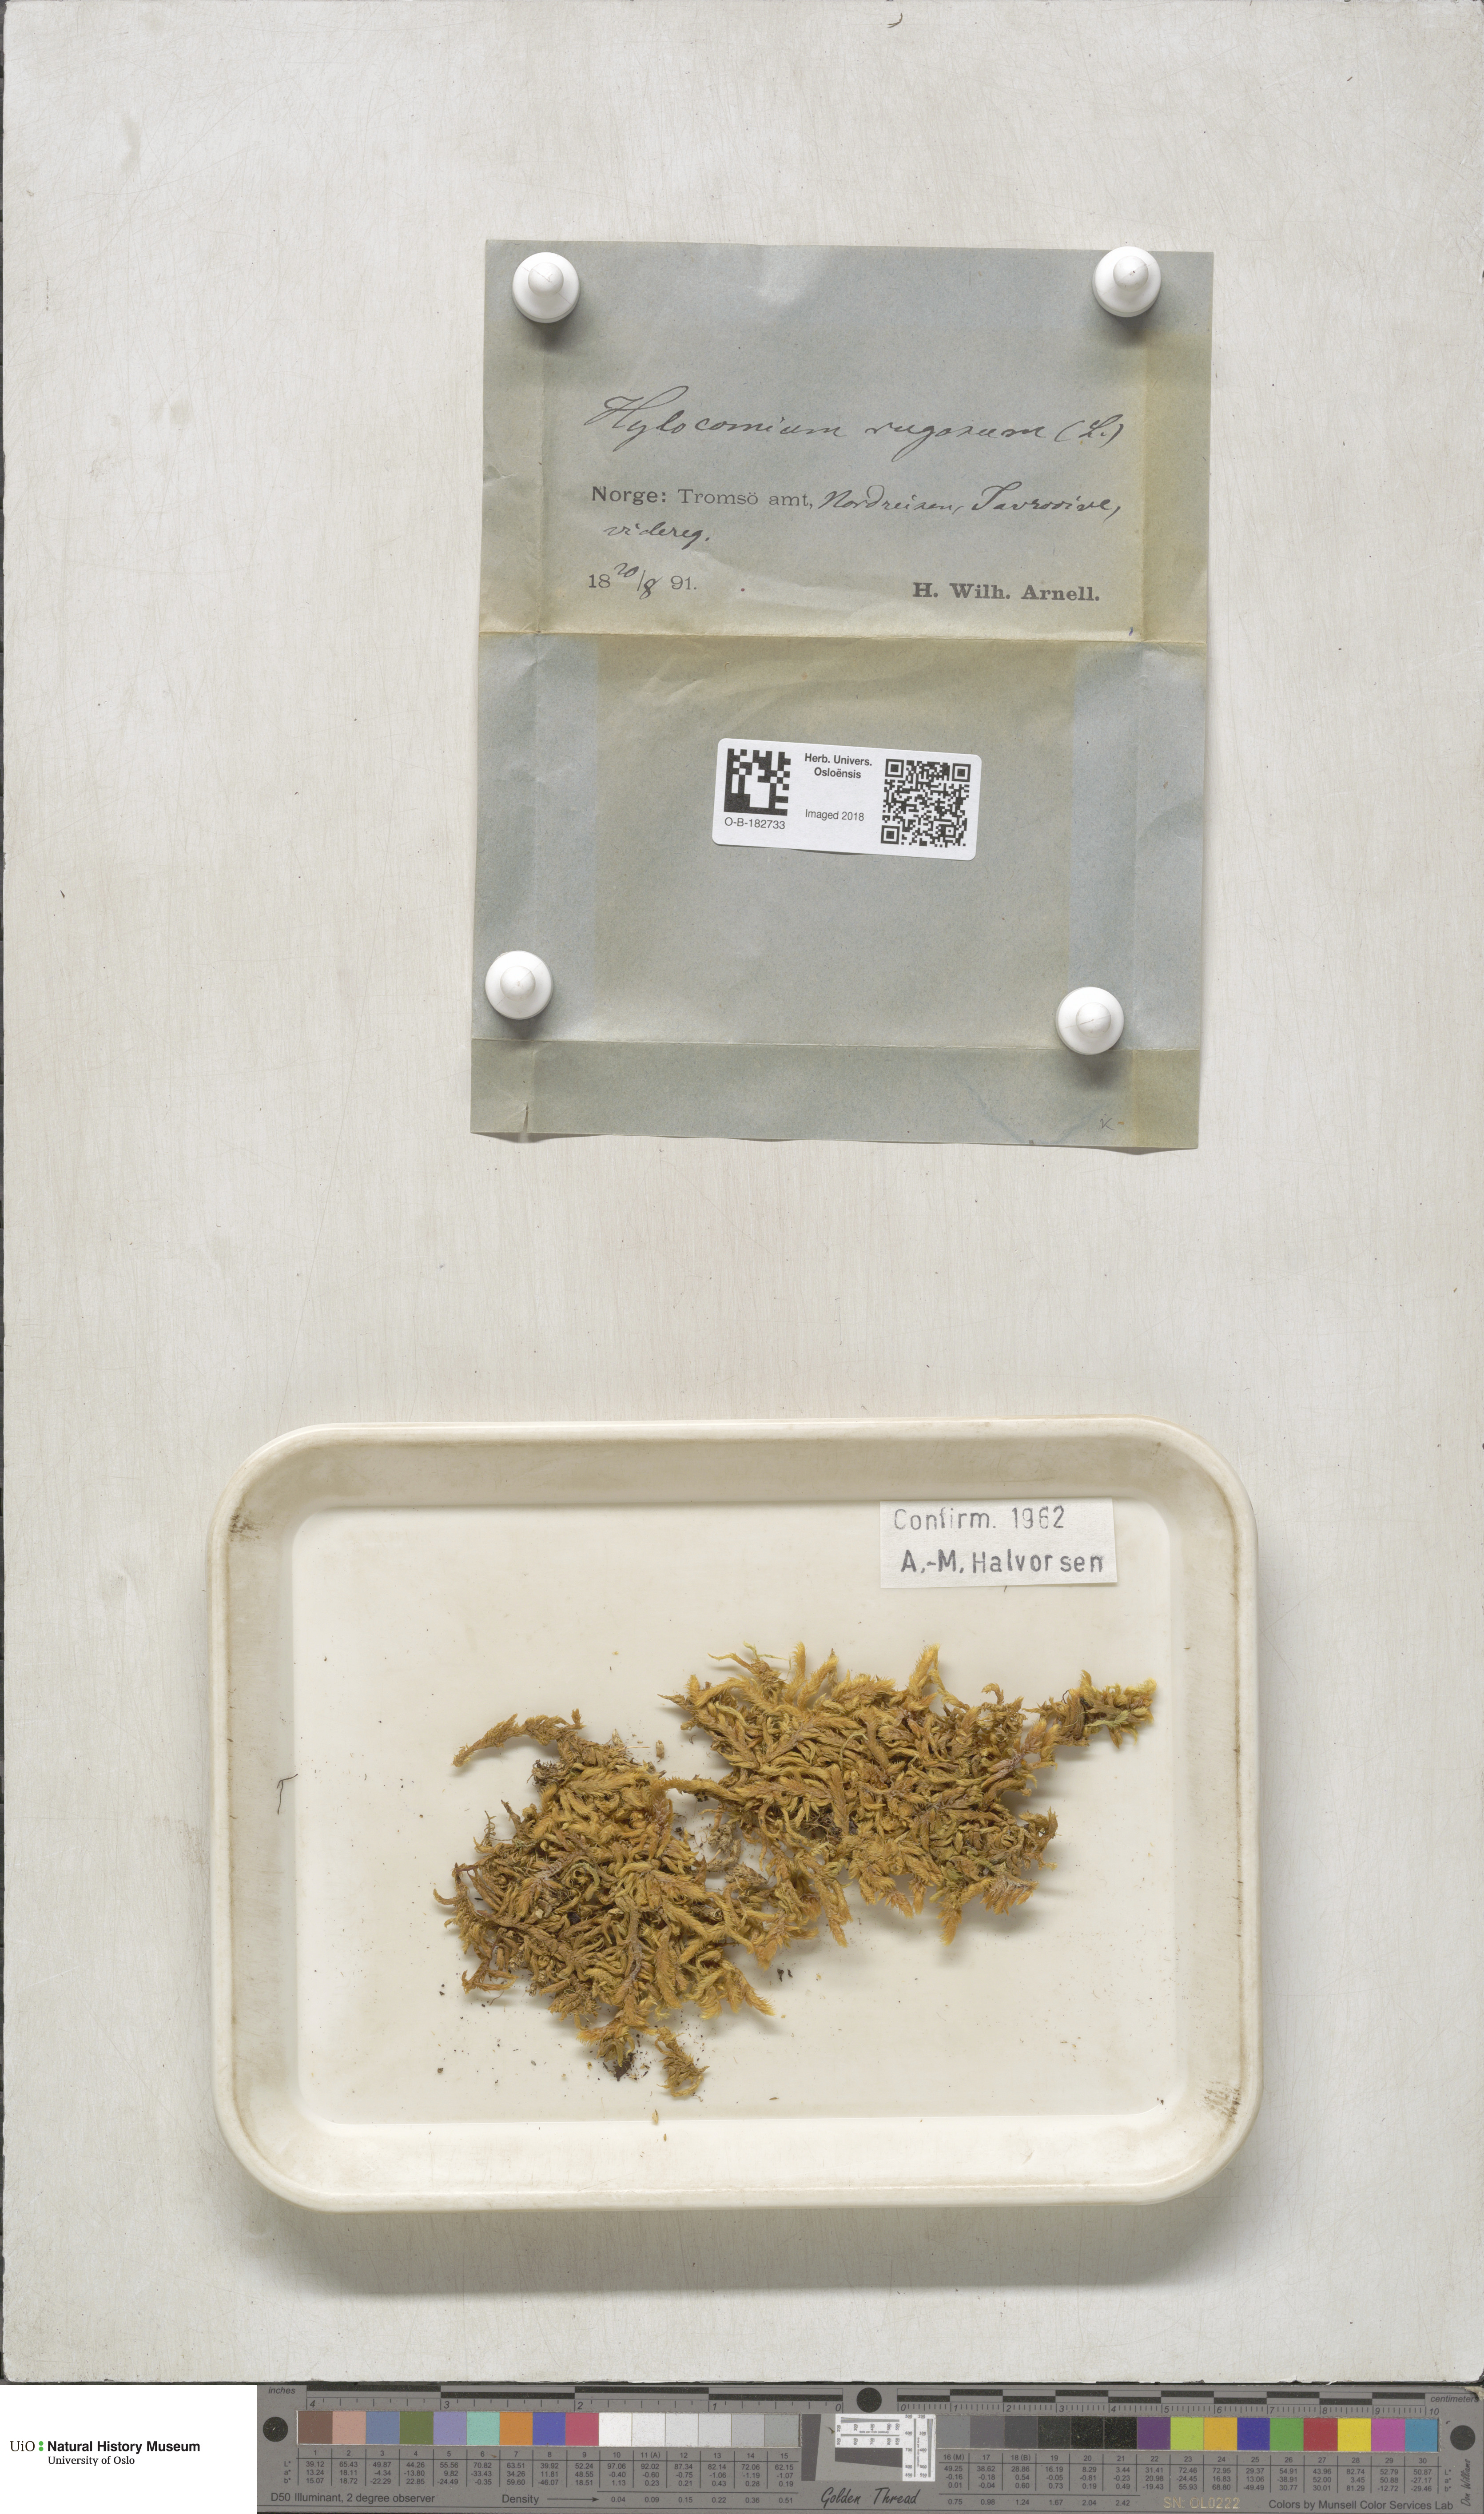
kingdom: Plantae
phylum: Bryophyta
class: Bryopsida
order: Hypnales
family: Rhytidiaceae
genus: Rhytidium
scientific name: Rhytidium rugosum
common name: Wrinkle-leaved moss
